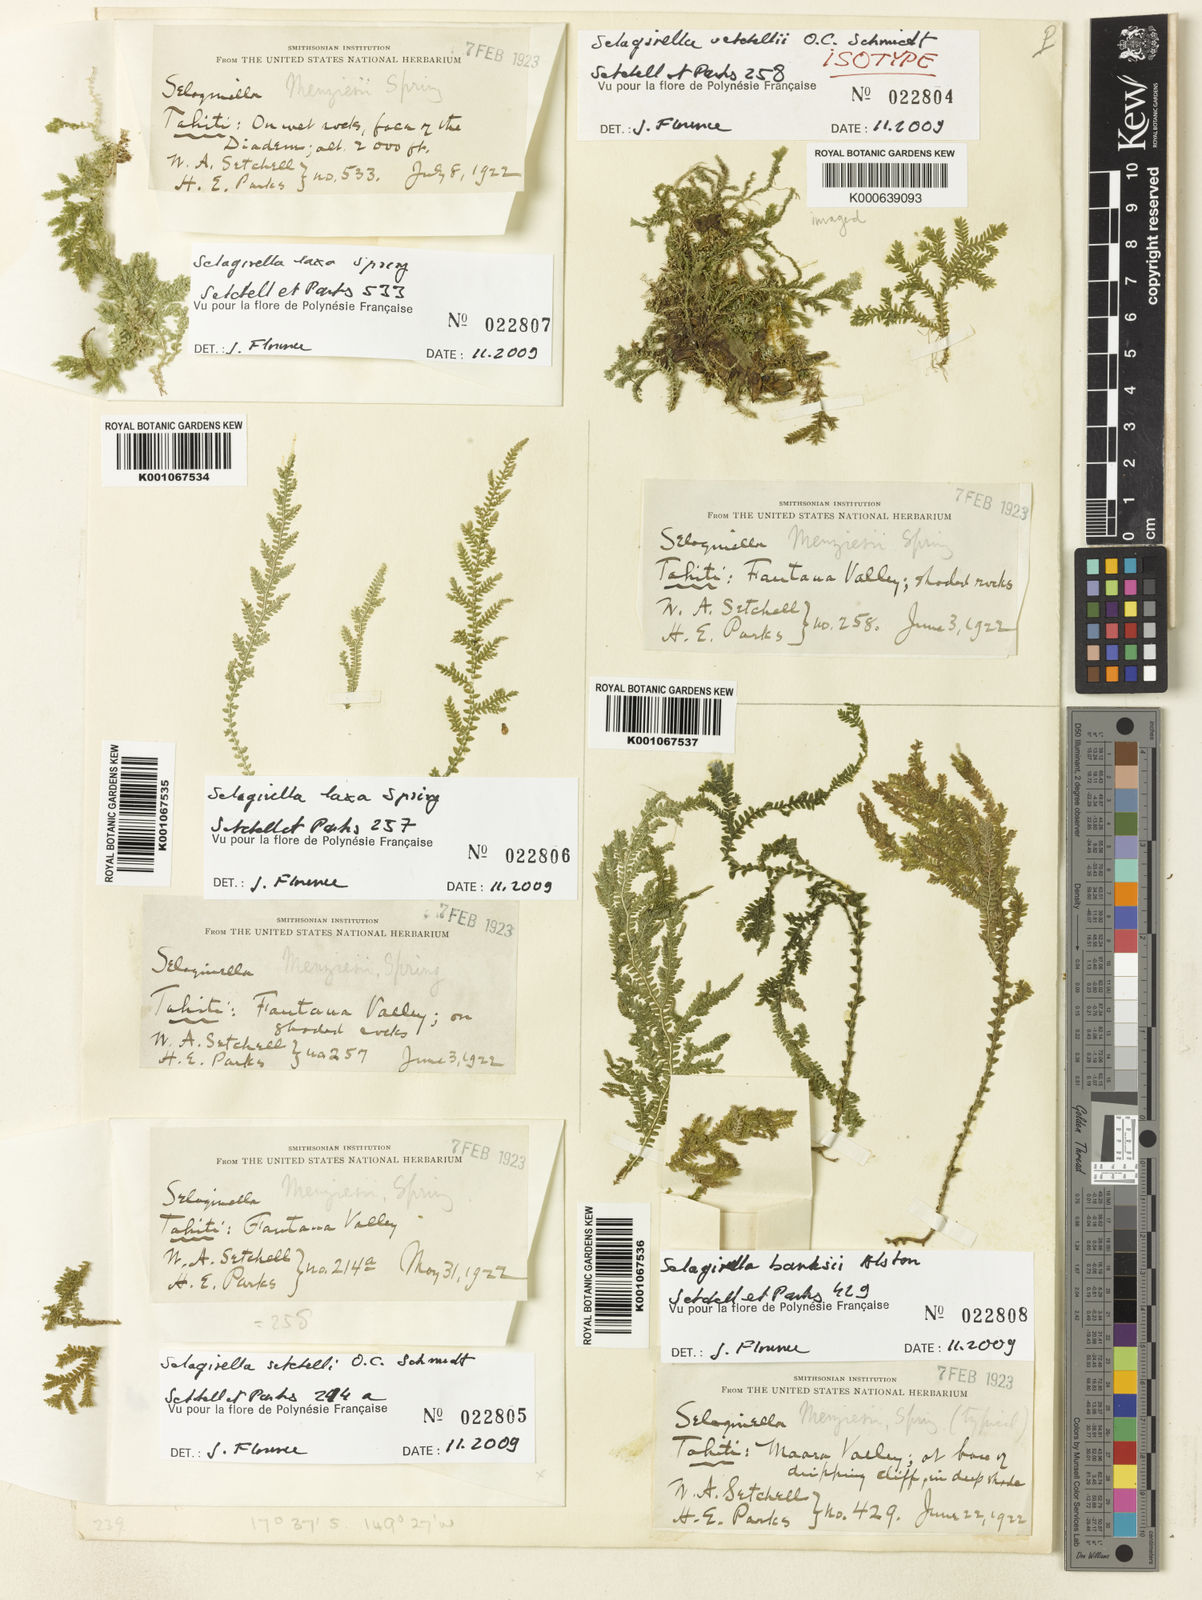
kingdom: Plantae
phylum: Tracheophyta
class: Lycopodiopsida
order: Selaginellales
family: Selaginellaceae
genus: Selaginella
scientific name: Selaginella setchellii
